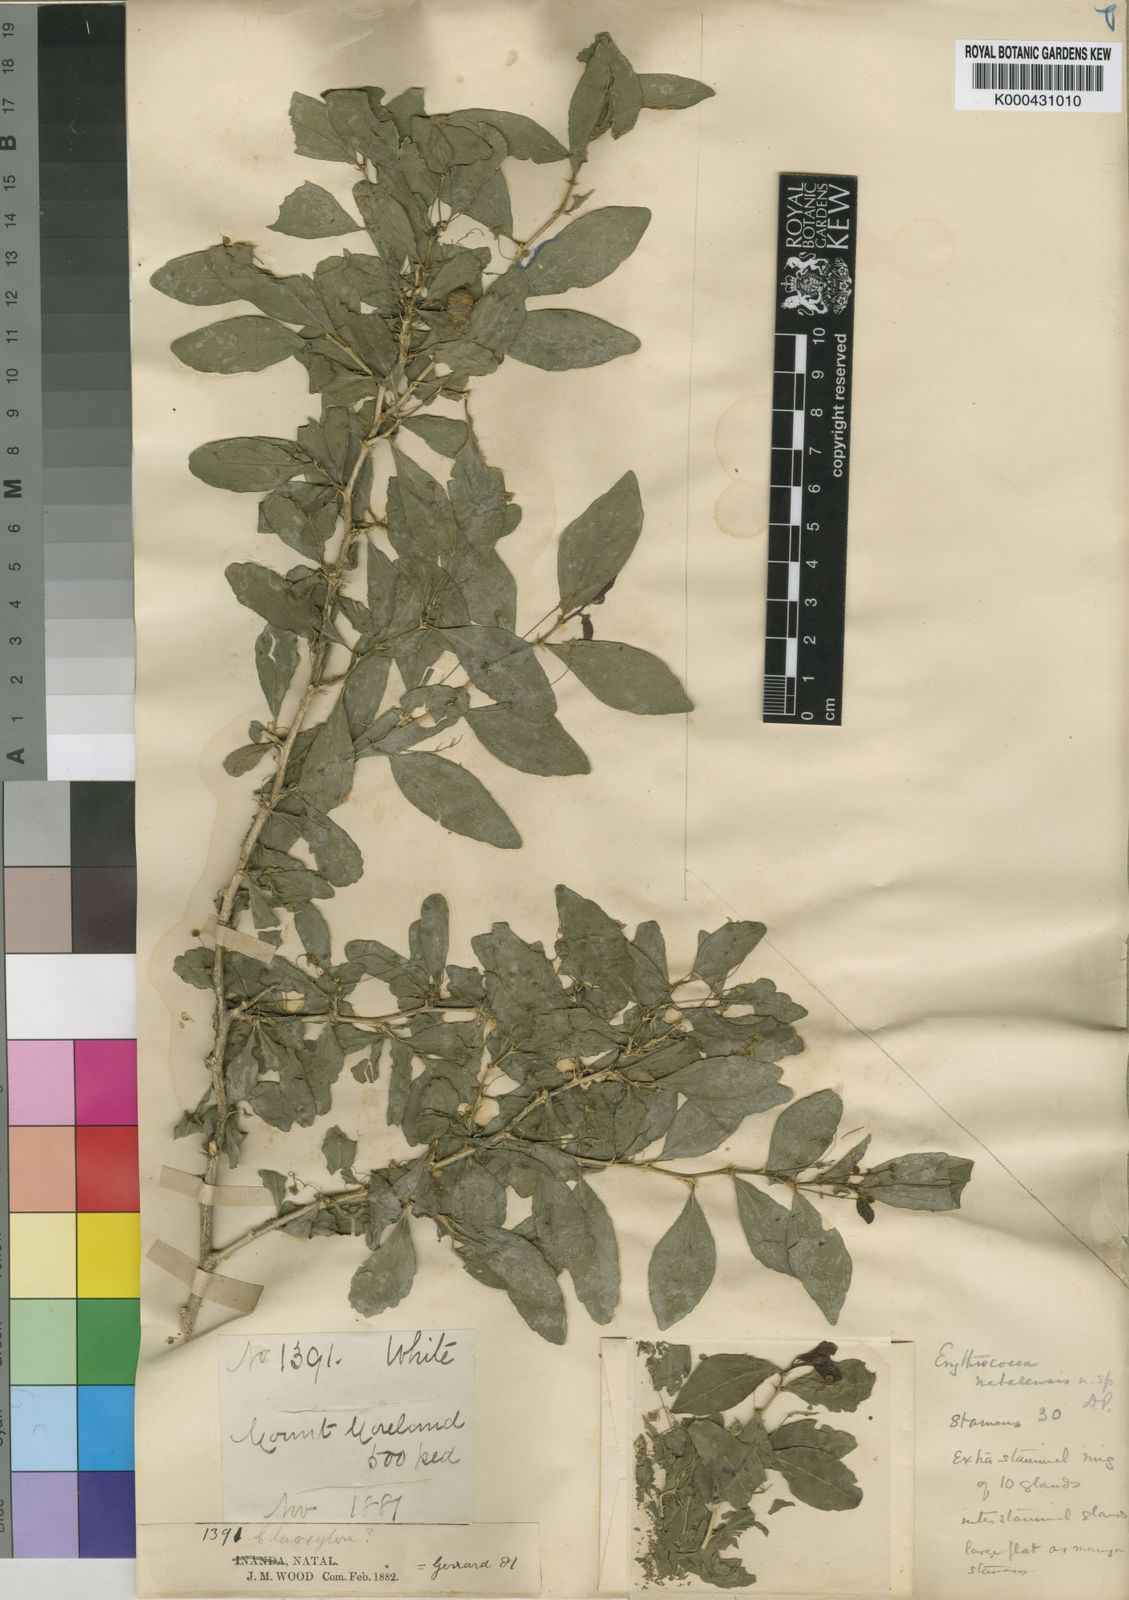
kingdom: Plantae
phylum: Tracheophyta
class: Magnoliopsida
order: Malpighiales
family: Euphorbiaceae
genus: Erythrococca
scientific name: Erythrococca natalensis
